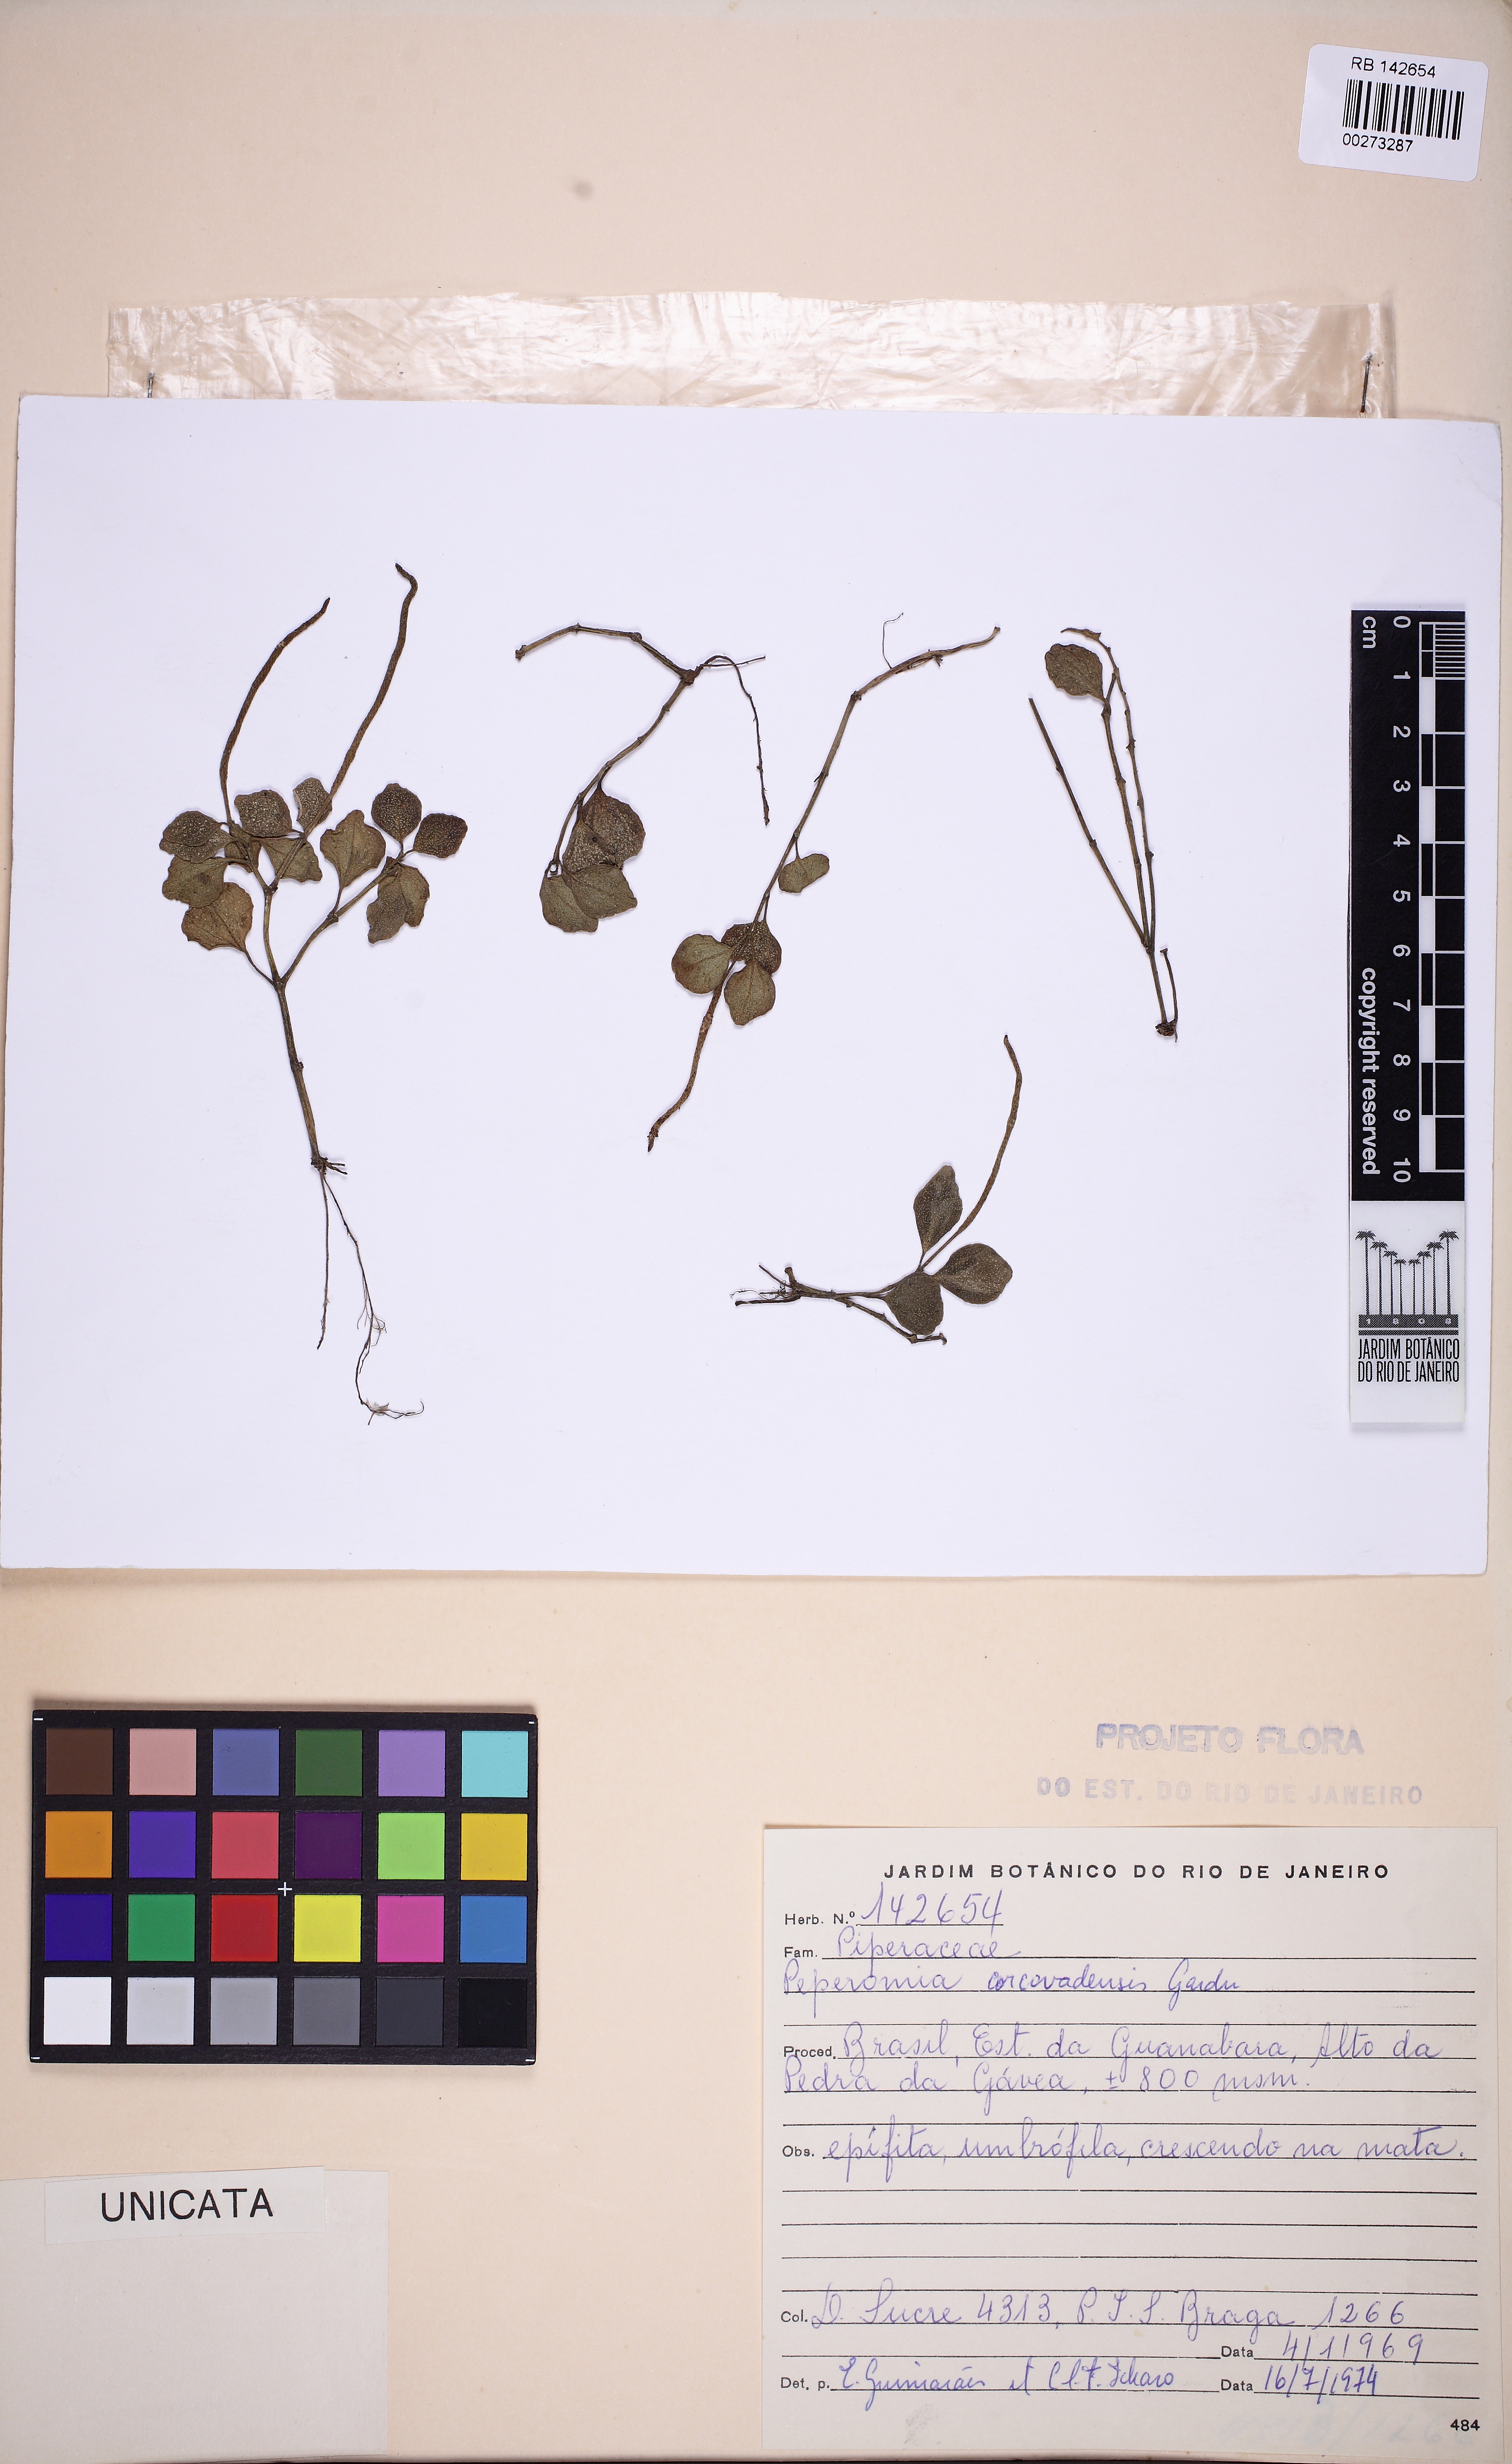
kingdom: Plantae
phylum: Tracheophyta
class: Magnoliopsida
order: Piperales
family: Piperaceae
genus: Peperomia
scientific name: Peperomia corcovadensis
